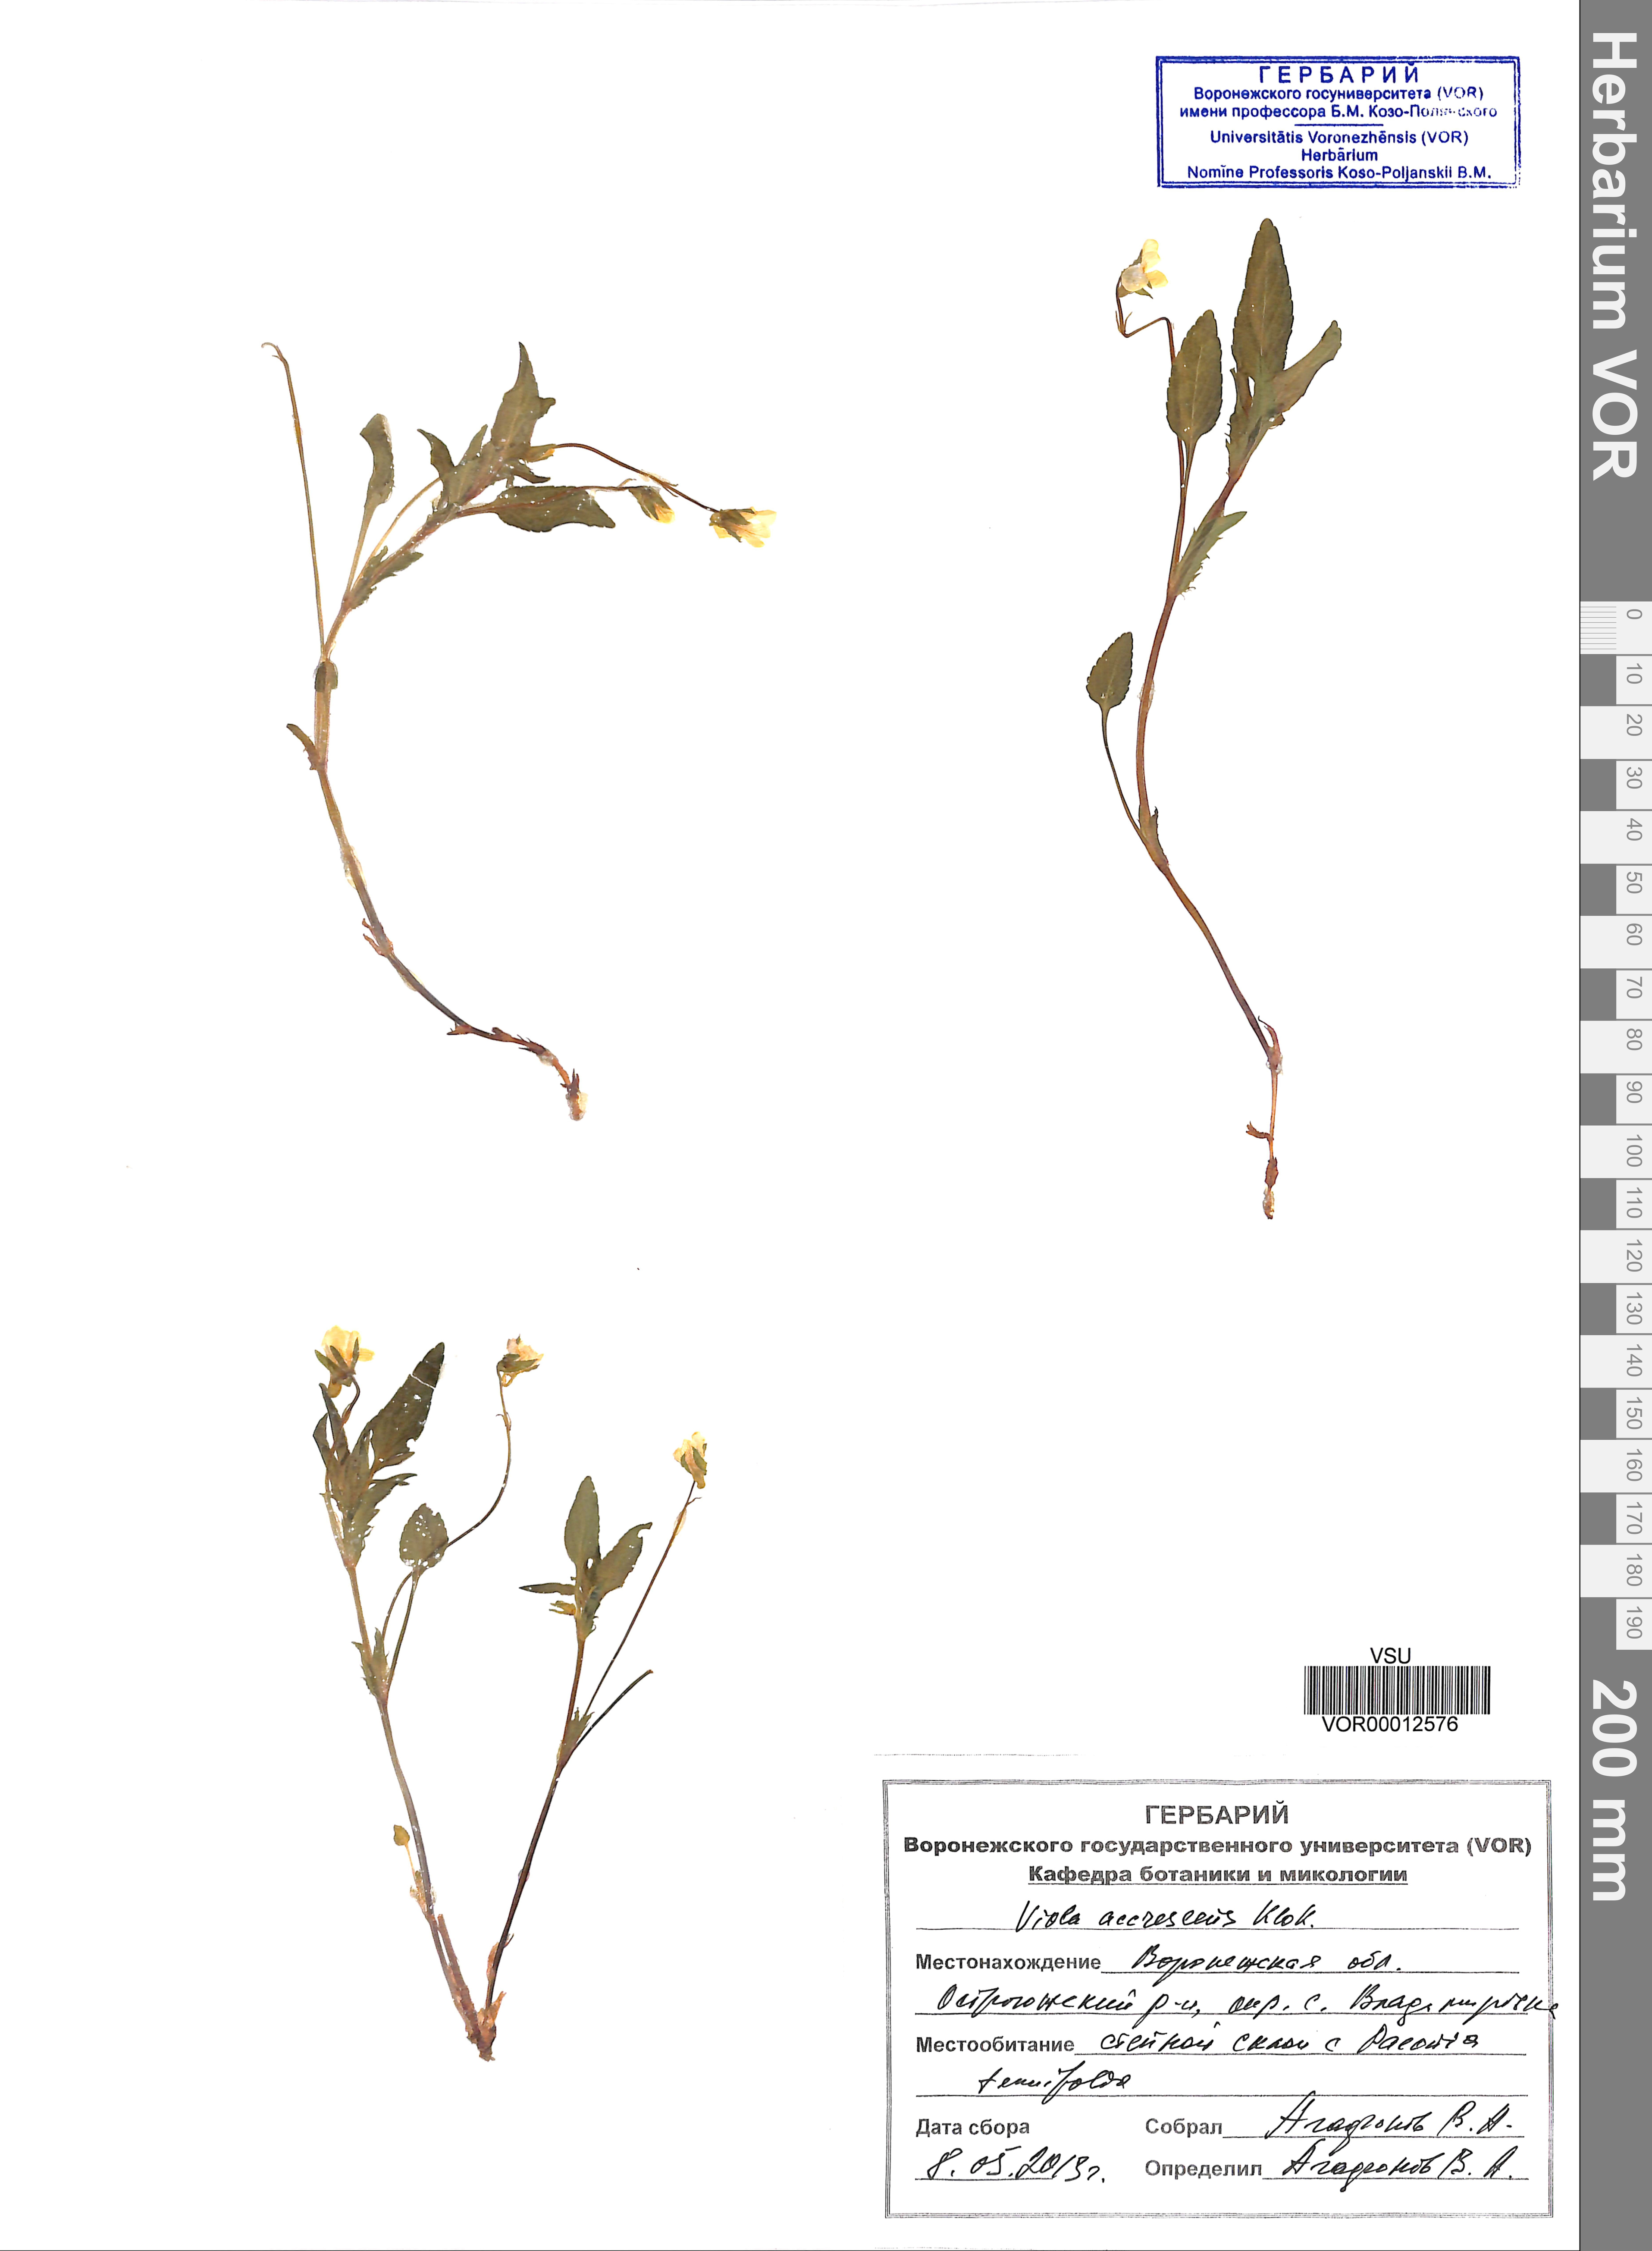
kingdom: Plantae
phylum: Tracheophyta
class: Magnoliopsida
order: Malpighiales
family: Violaceae
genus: Viola
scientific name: Viola pumila
